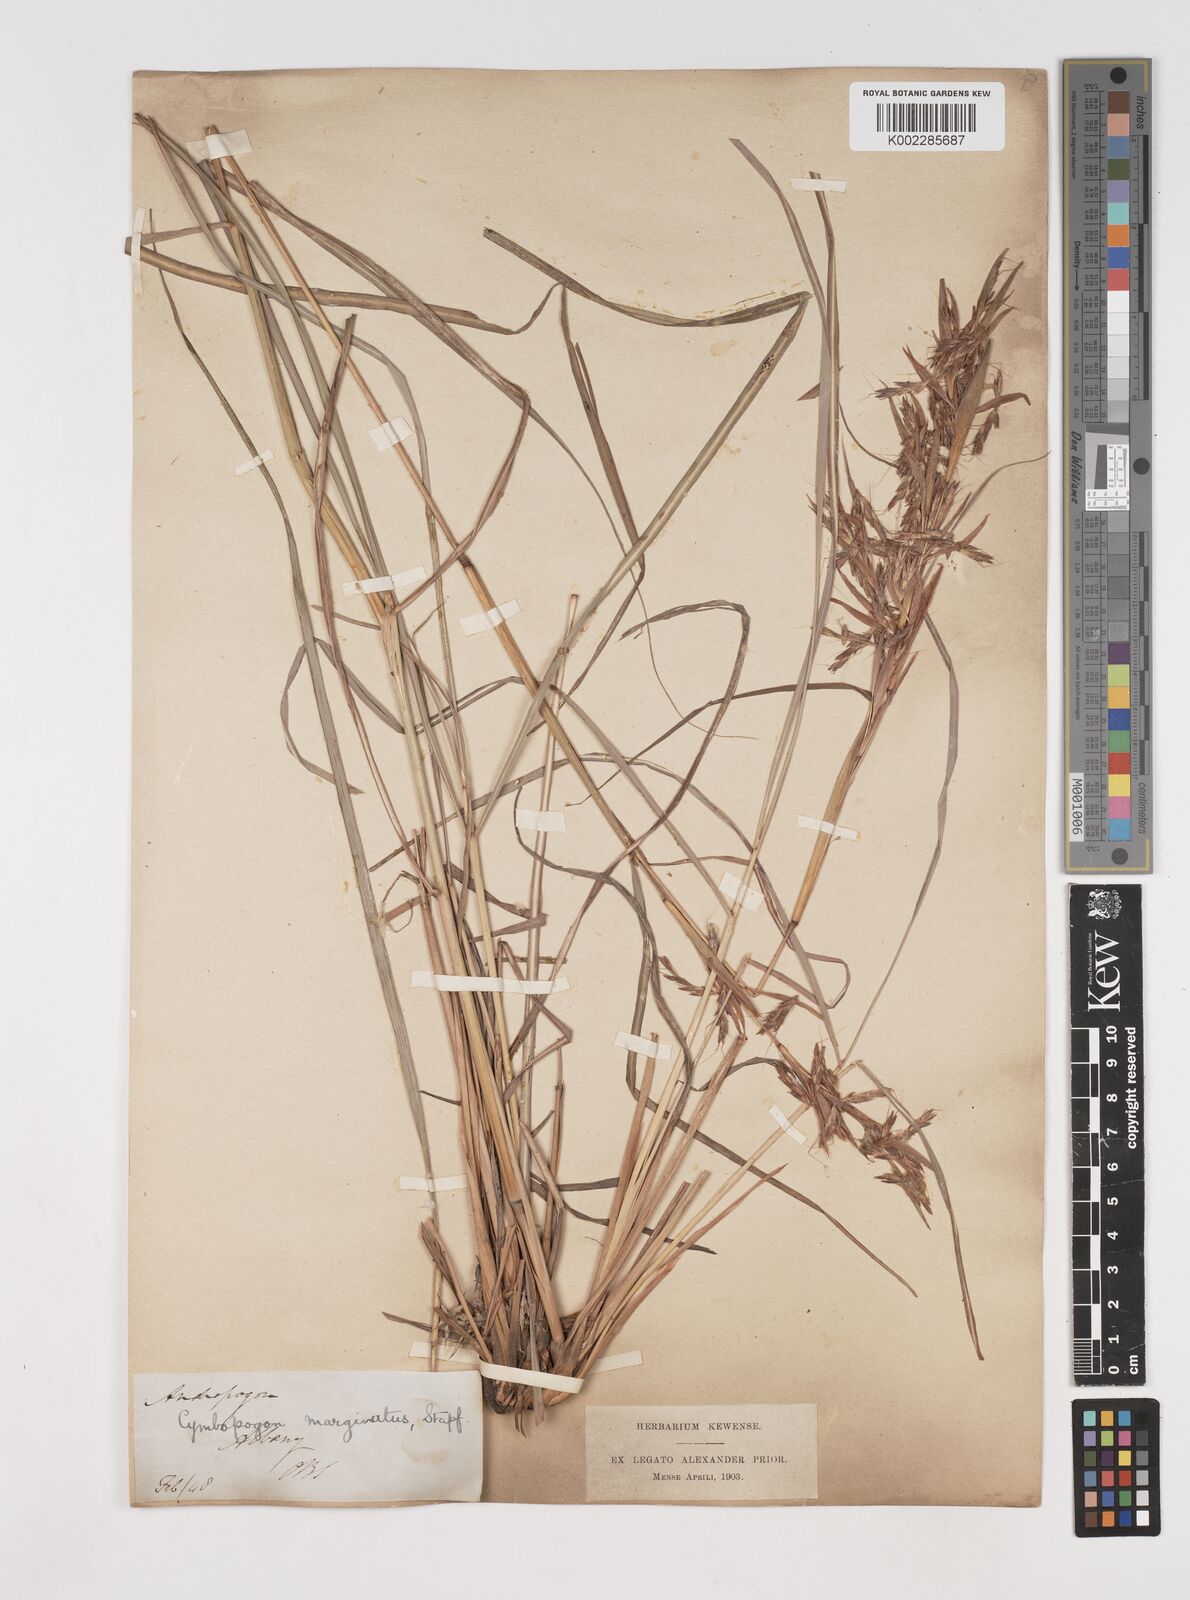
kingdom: Plantae
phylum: Tracheophyta
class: Liliopsida
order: Poales
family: Poaceae
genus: Cymbopogon
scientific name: Cymbopogon marginatus
